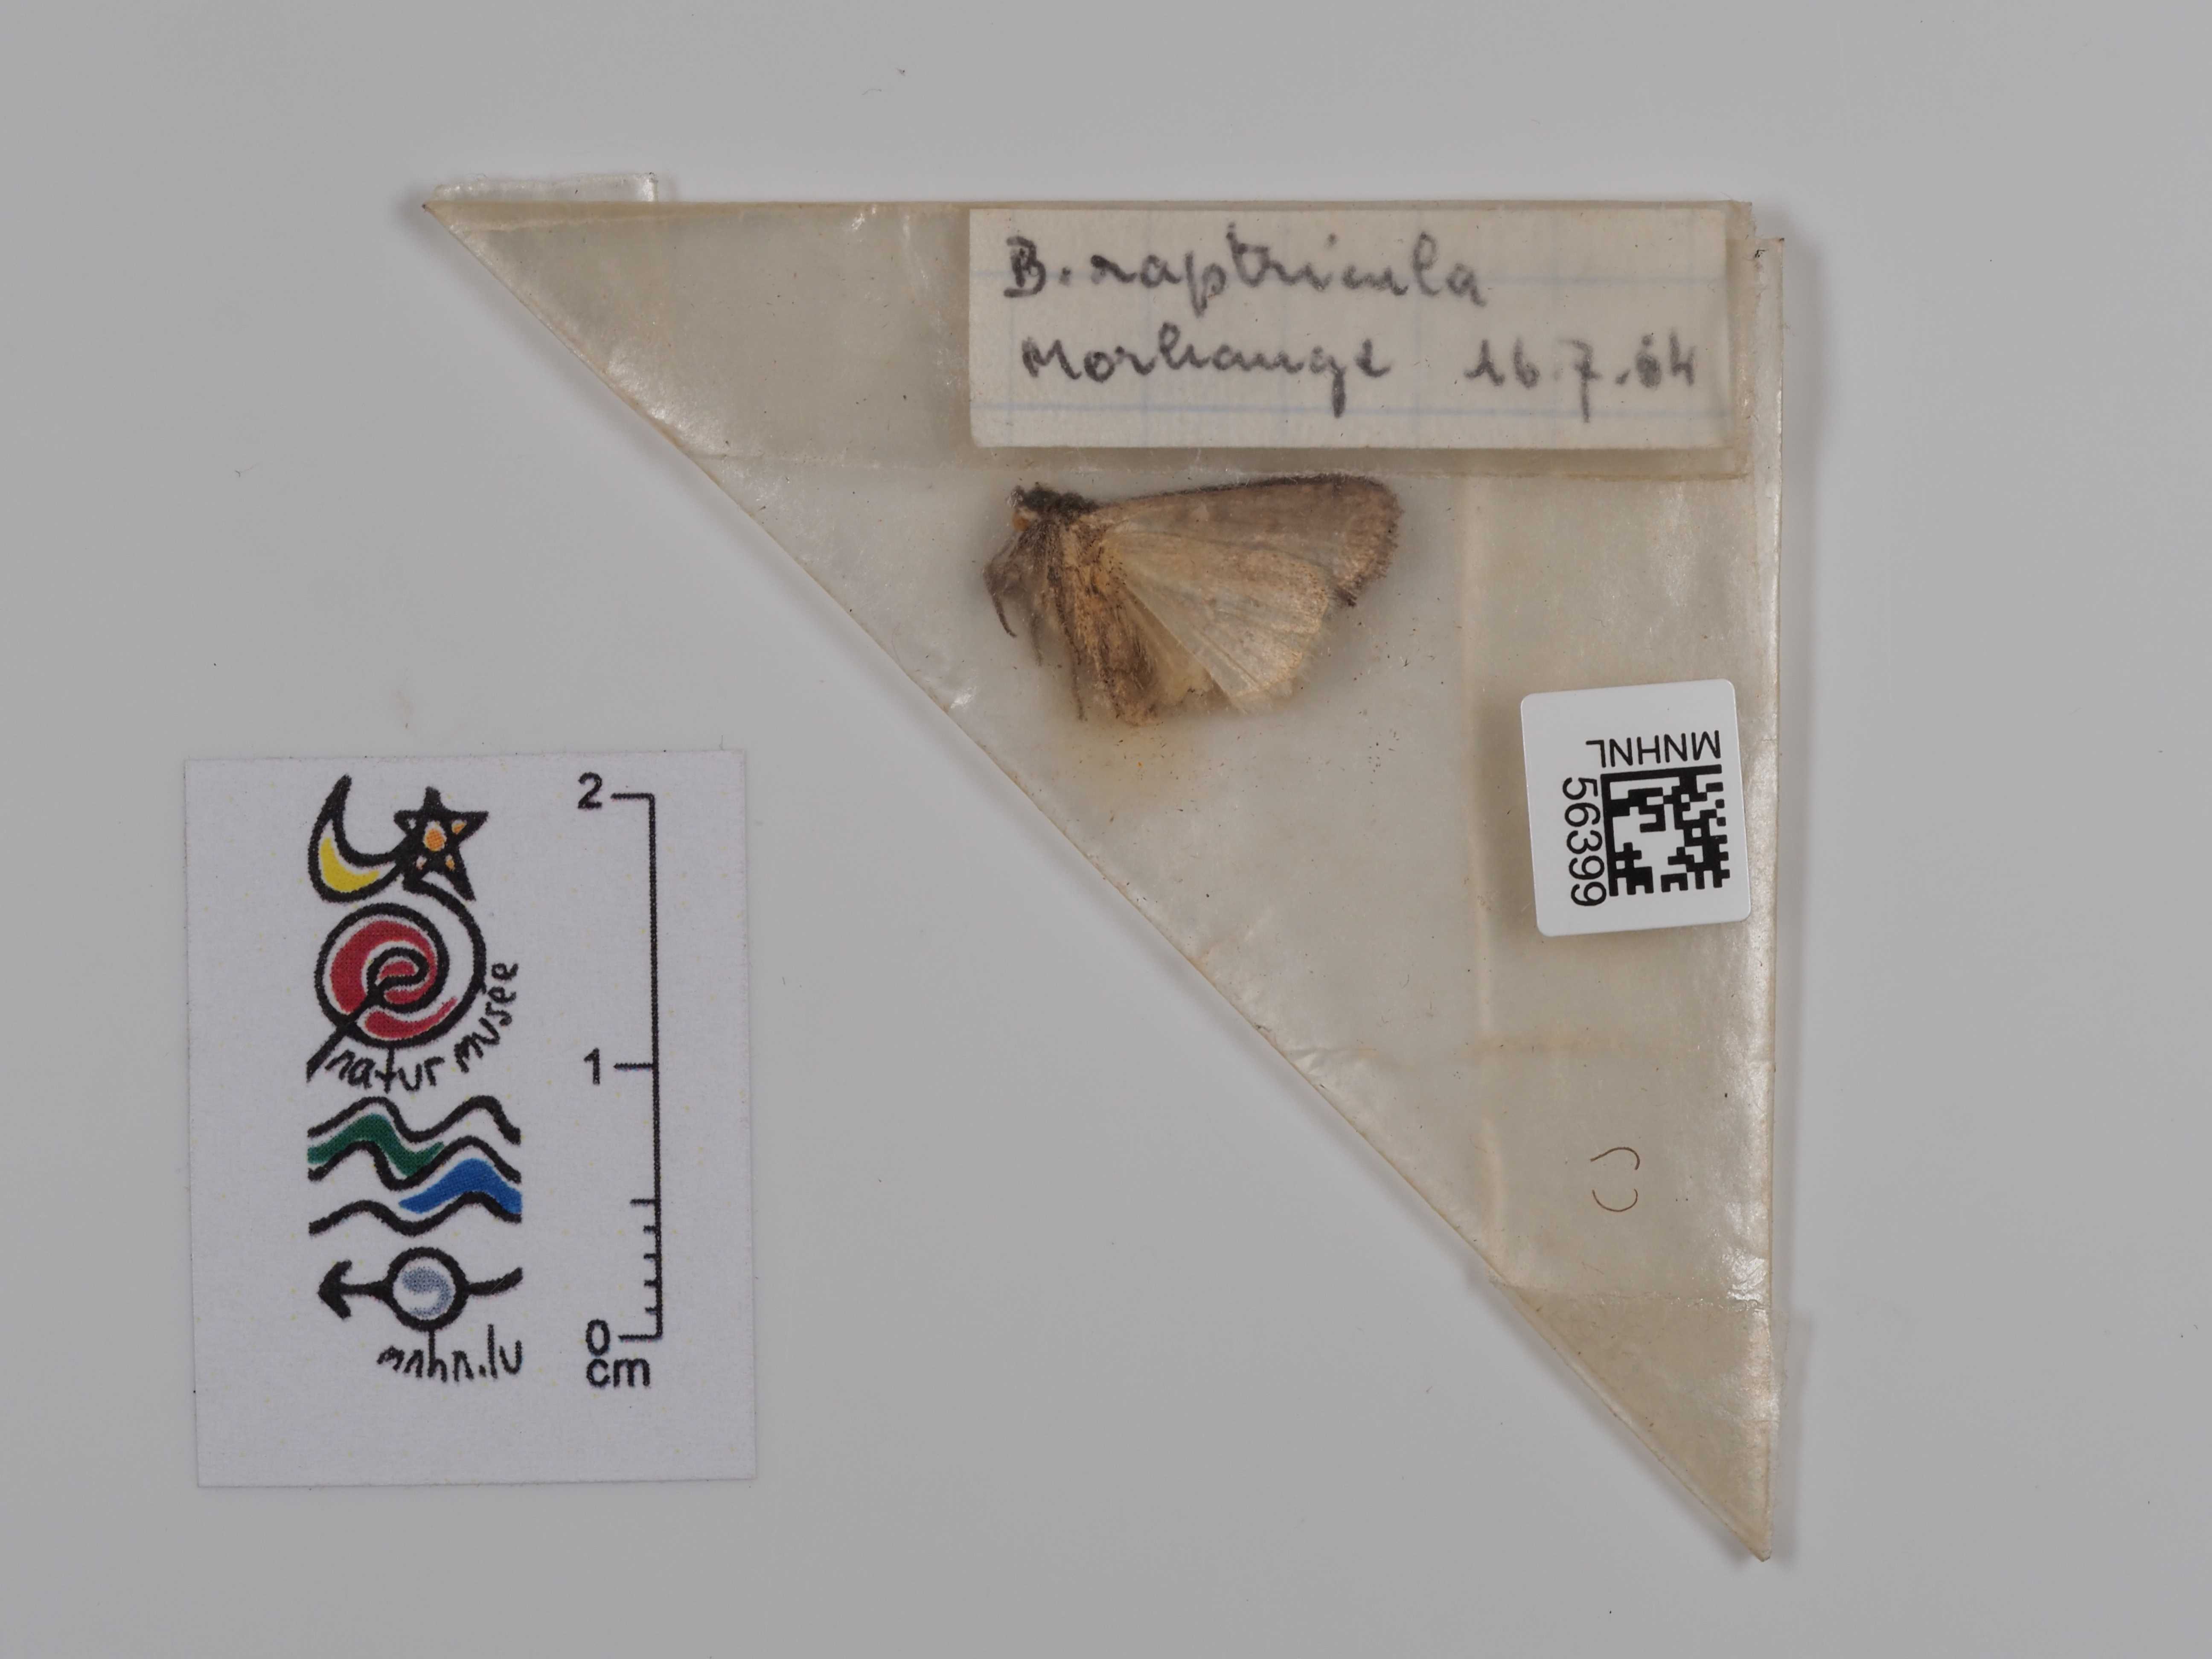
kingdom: Animalia
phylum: Arthropoda
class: Insecta
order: Lepidoptera
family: Noctuidae
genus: Bryophila
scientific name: Bryophila raptricula
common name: Marbled grey
